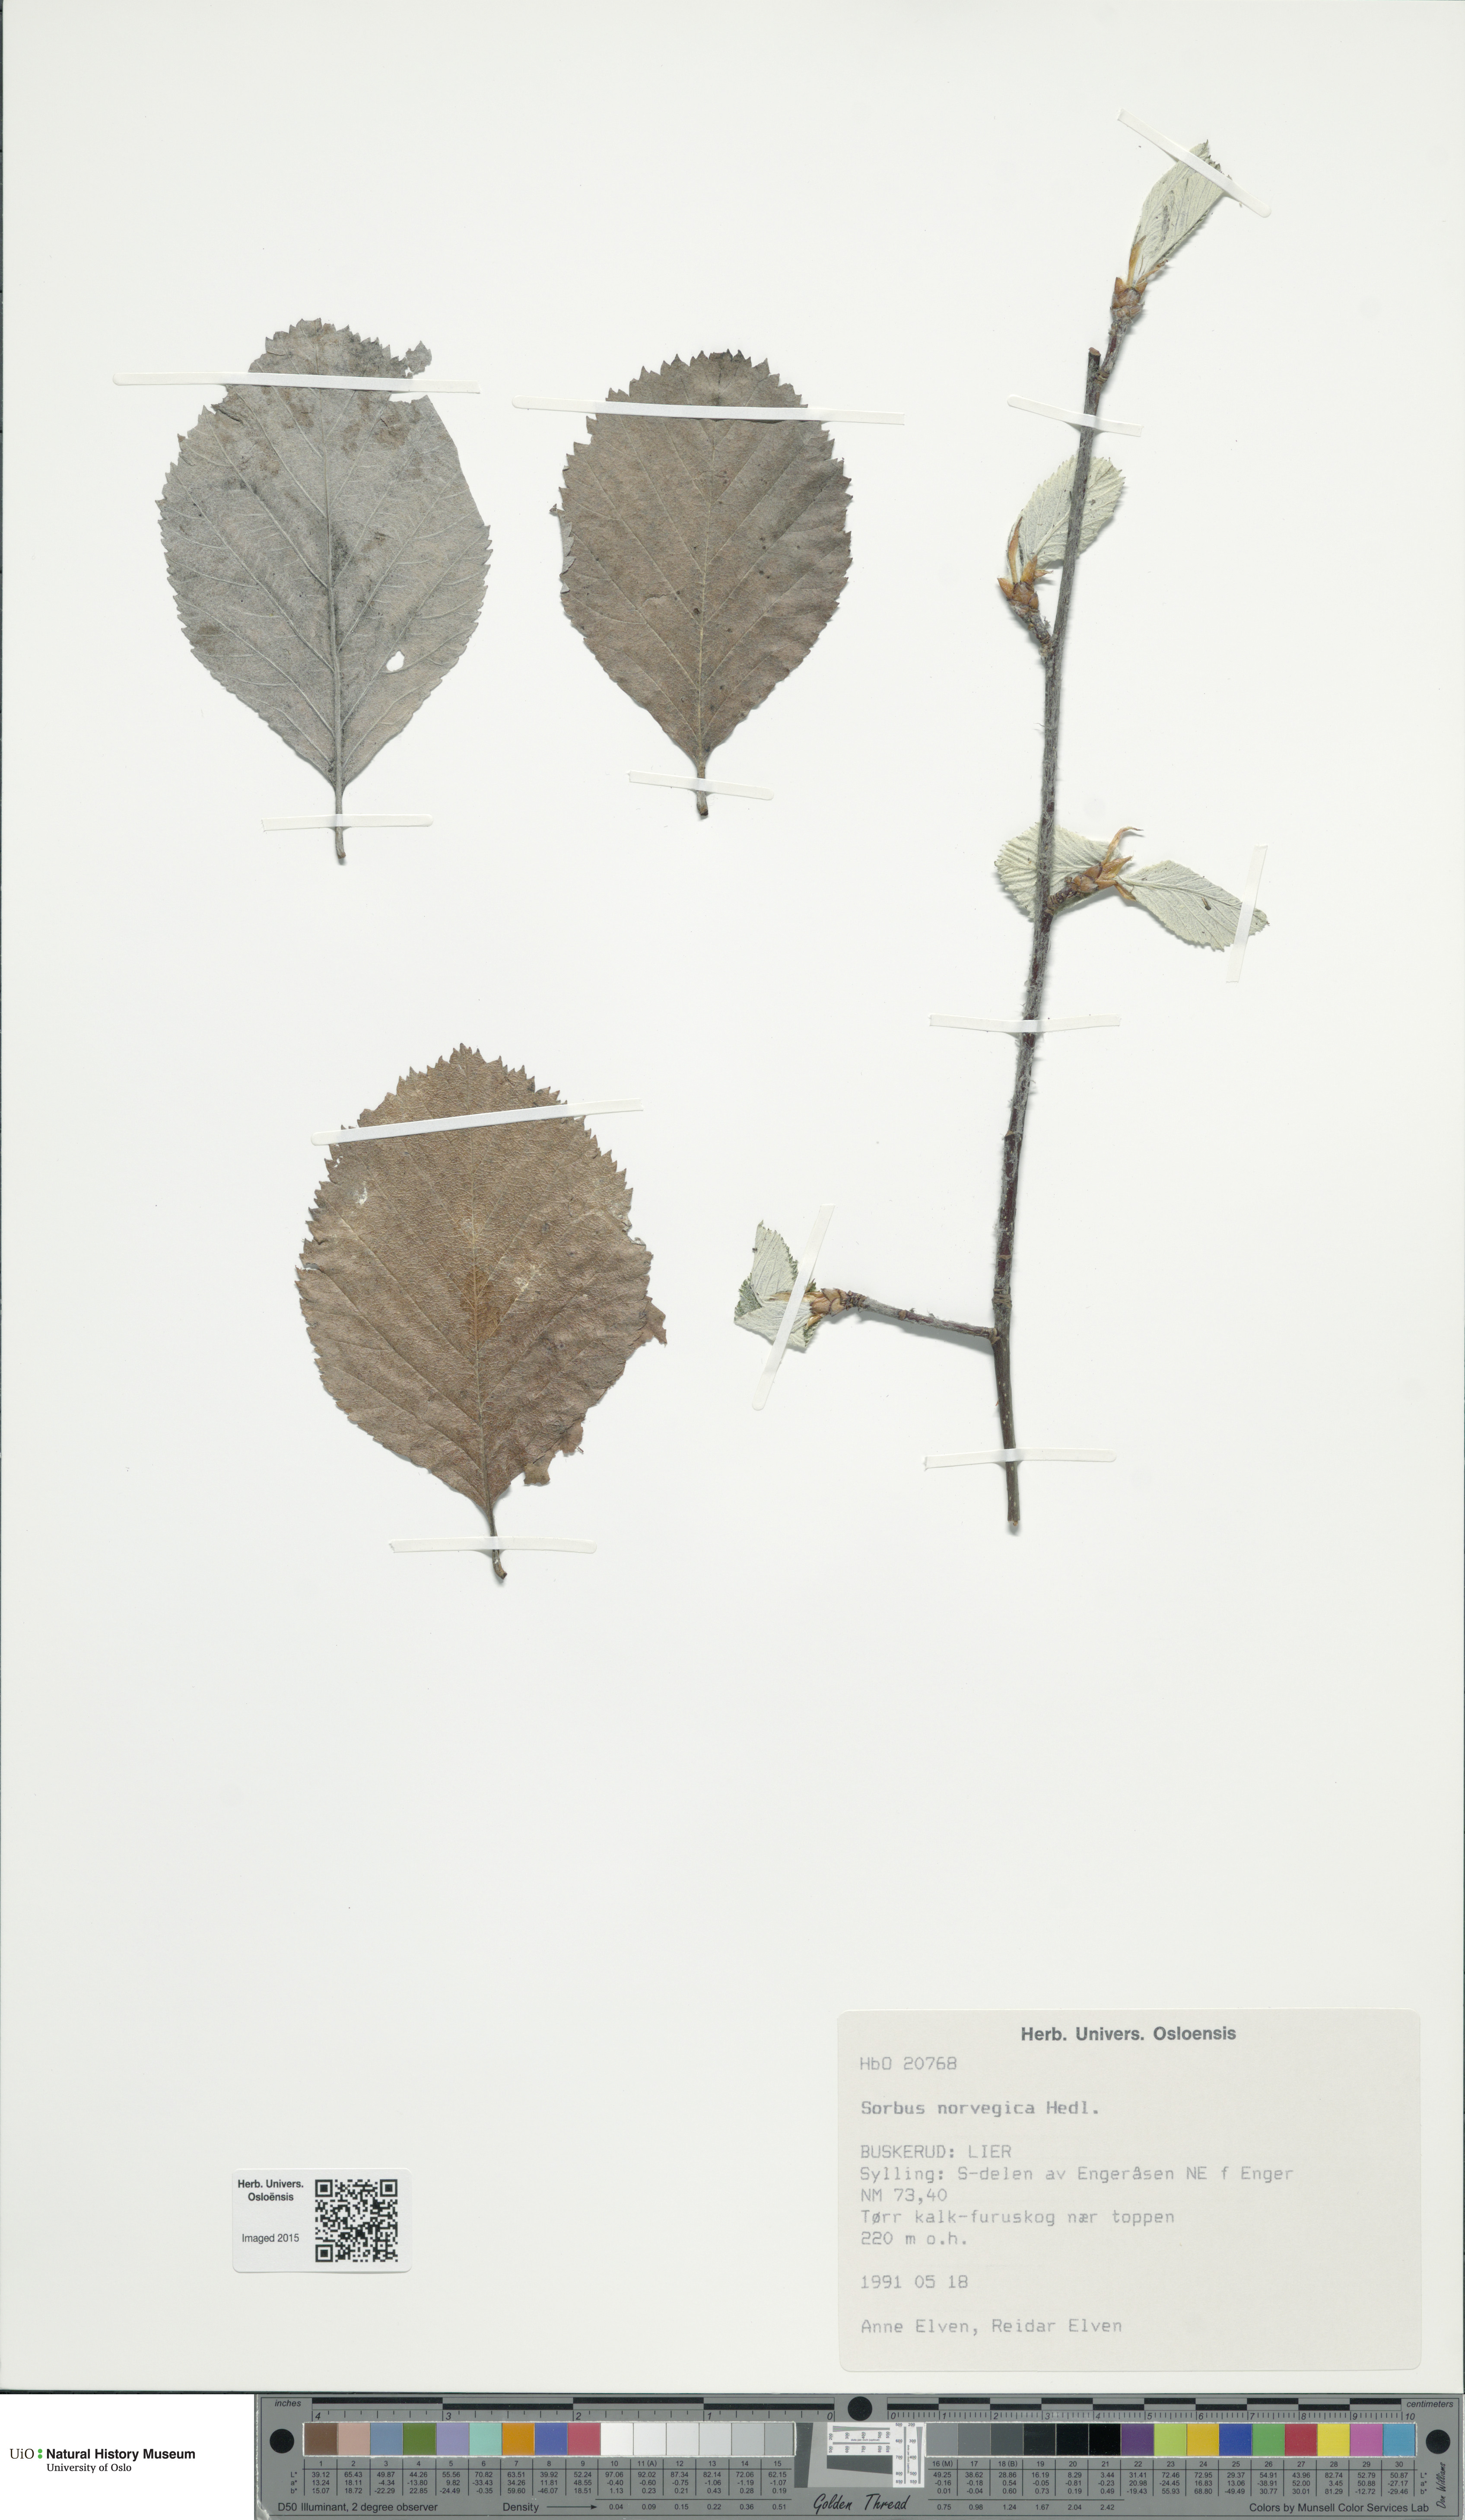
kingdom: Plantae
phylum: Tracheophyta
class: Magnoliopsida
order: Rosales
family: Rosaceae
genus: Aria
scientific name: Aria obtusifolia
